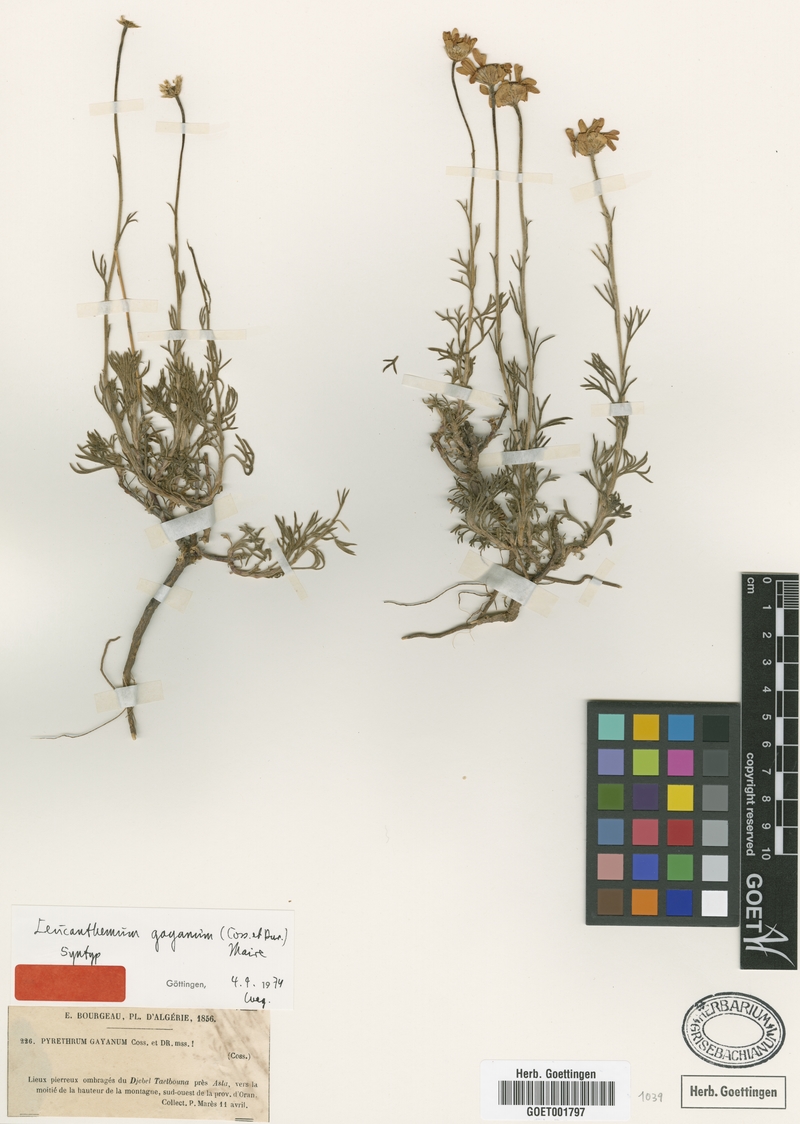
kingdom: Plantae
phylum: Tracheophyta
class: Magnoliopsida
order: Asterales
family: Asteraceae
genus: Rhodanthemum
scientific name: Rhodanthemum gayanum
